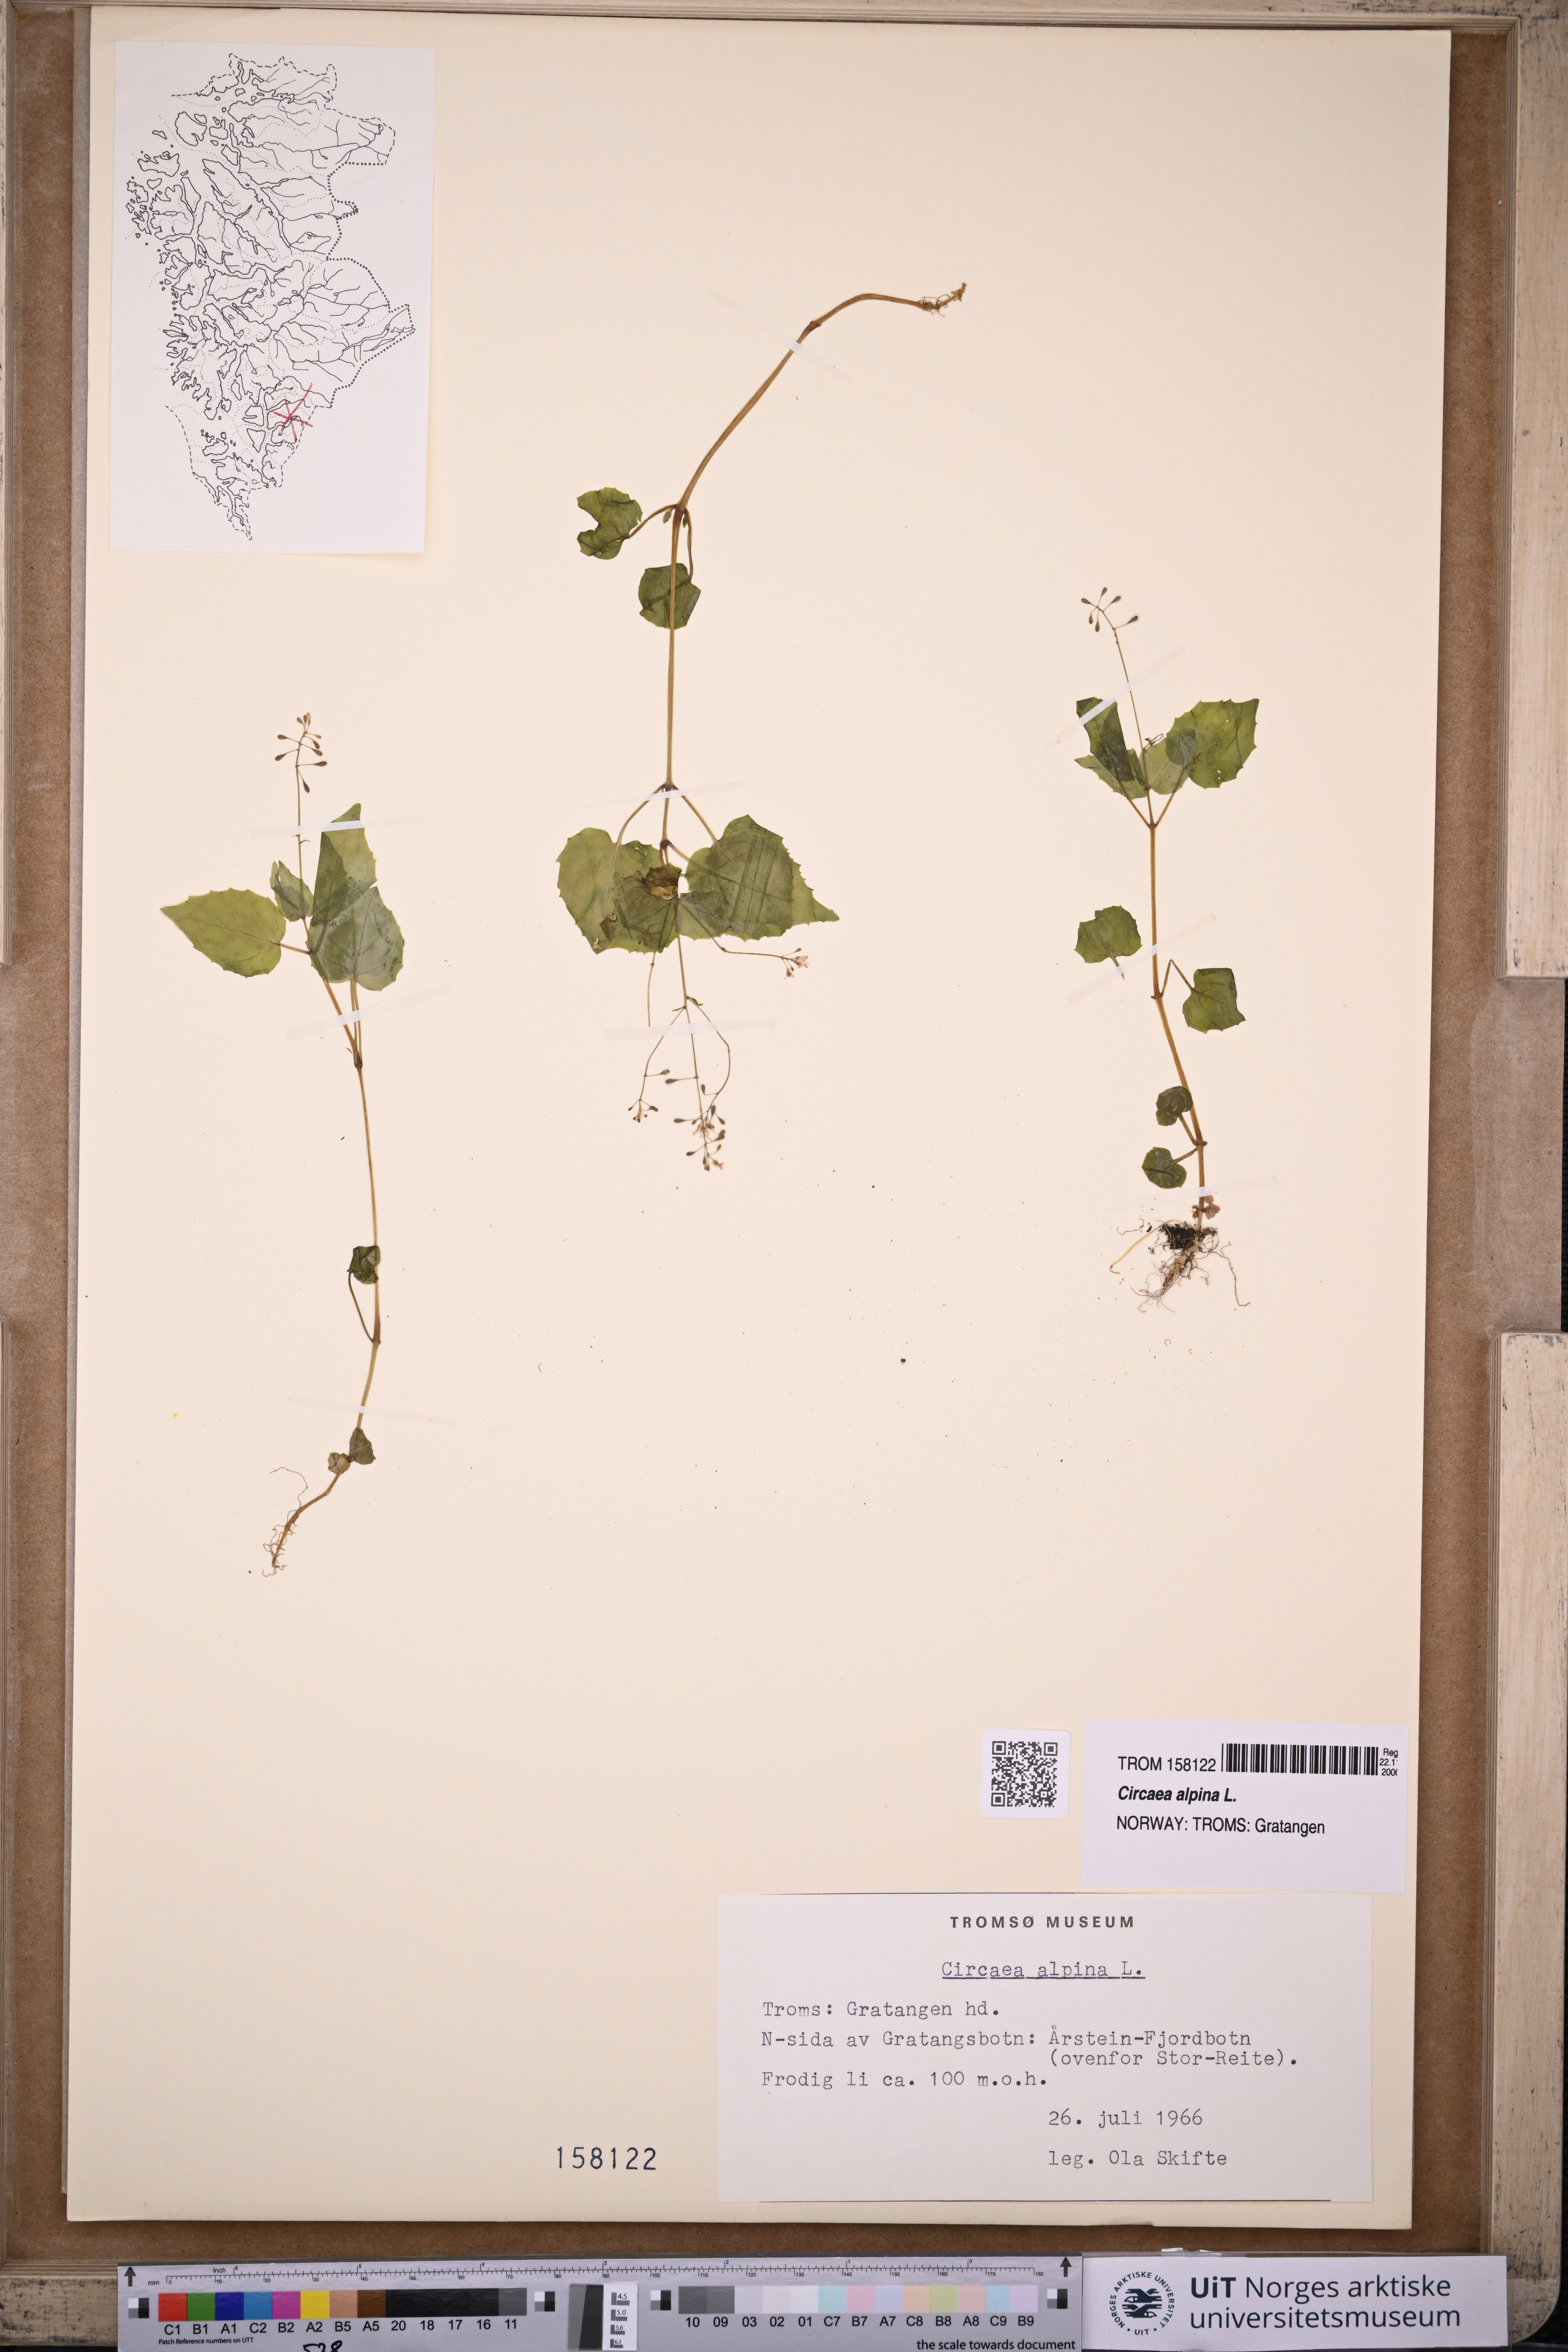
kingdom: Plantae
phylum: Tracheophyta
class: Magnoliopsida
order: Myrtales
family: Onagraceae
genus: Circaea
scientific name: Circaea alpina
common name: Alpine enchanter's-nightshade
